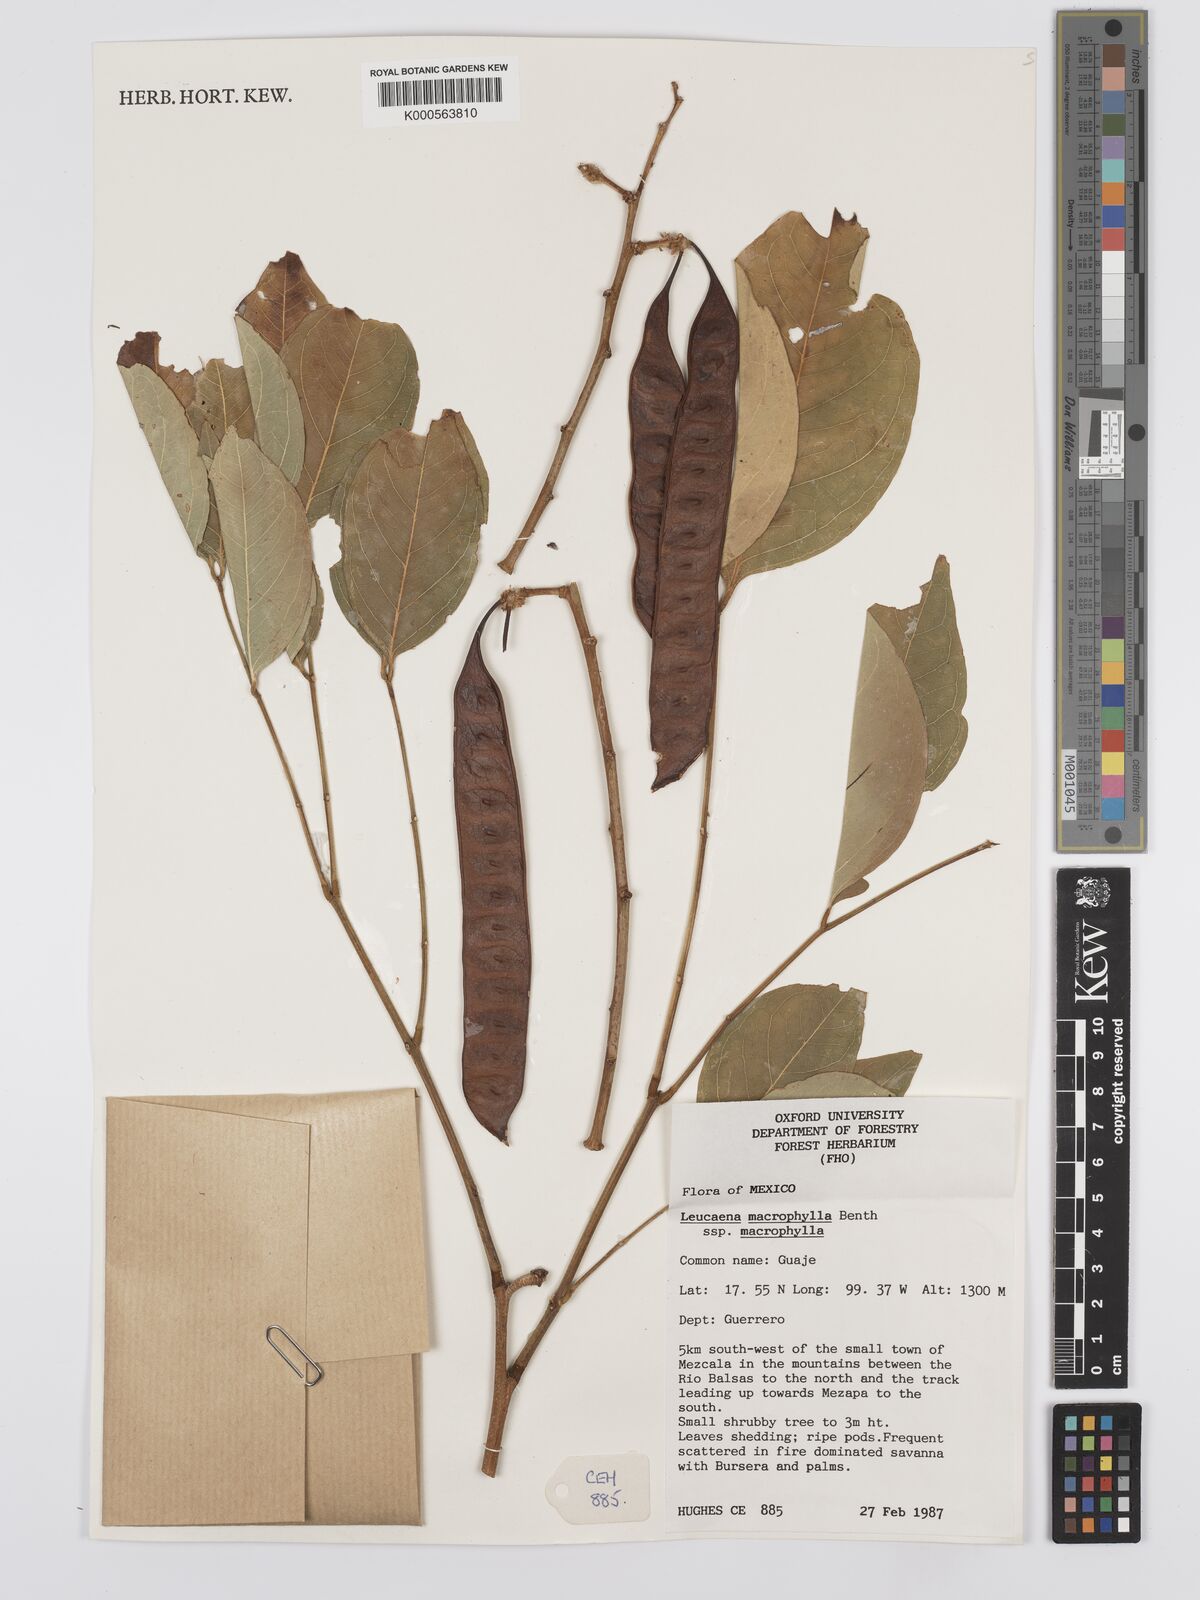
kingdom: Plantae
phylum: Tracheophyta
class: Magnoliopsida
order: Fabales
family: Fabaceae
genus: Leucaena
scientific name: Leucaena macrophylla
